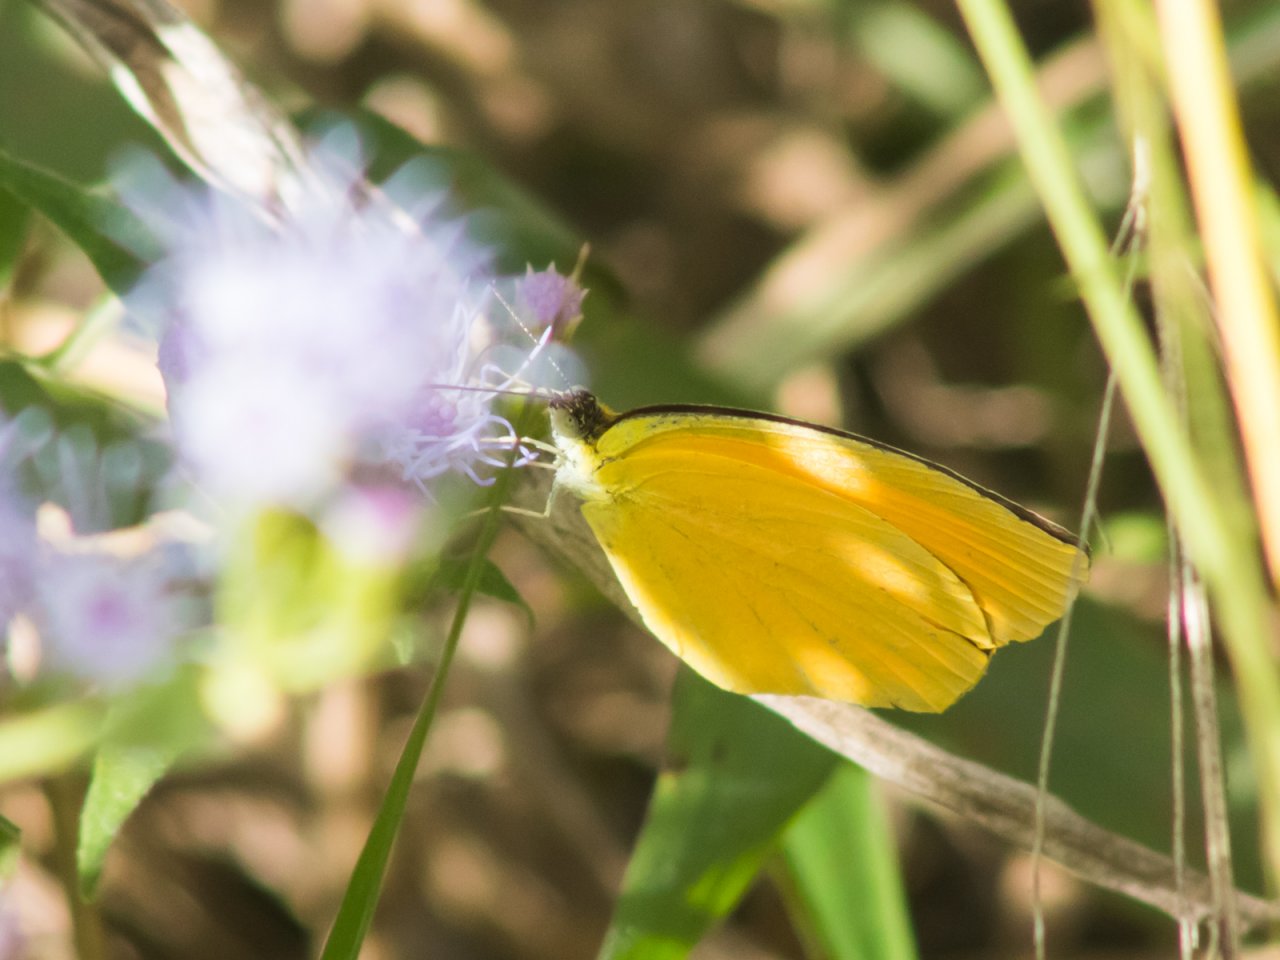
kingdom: Animalia
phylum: Arthropoda
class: Insecta
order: Lepidoptera
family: Pieridae
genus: Pyrisitia
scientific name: Pyrisitia proterpia
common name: Tailed Orange
